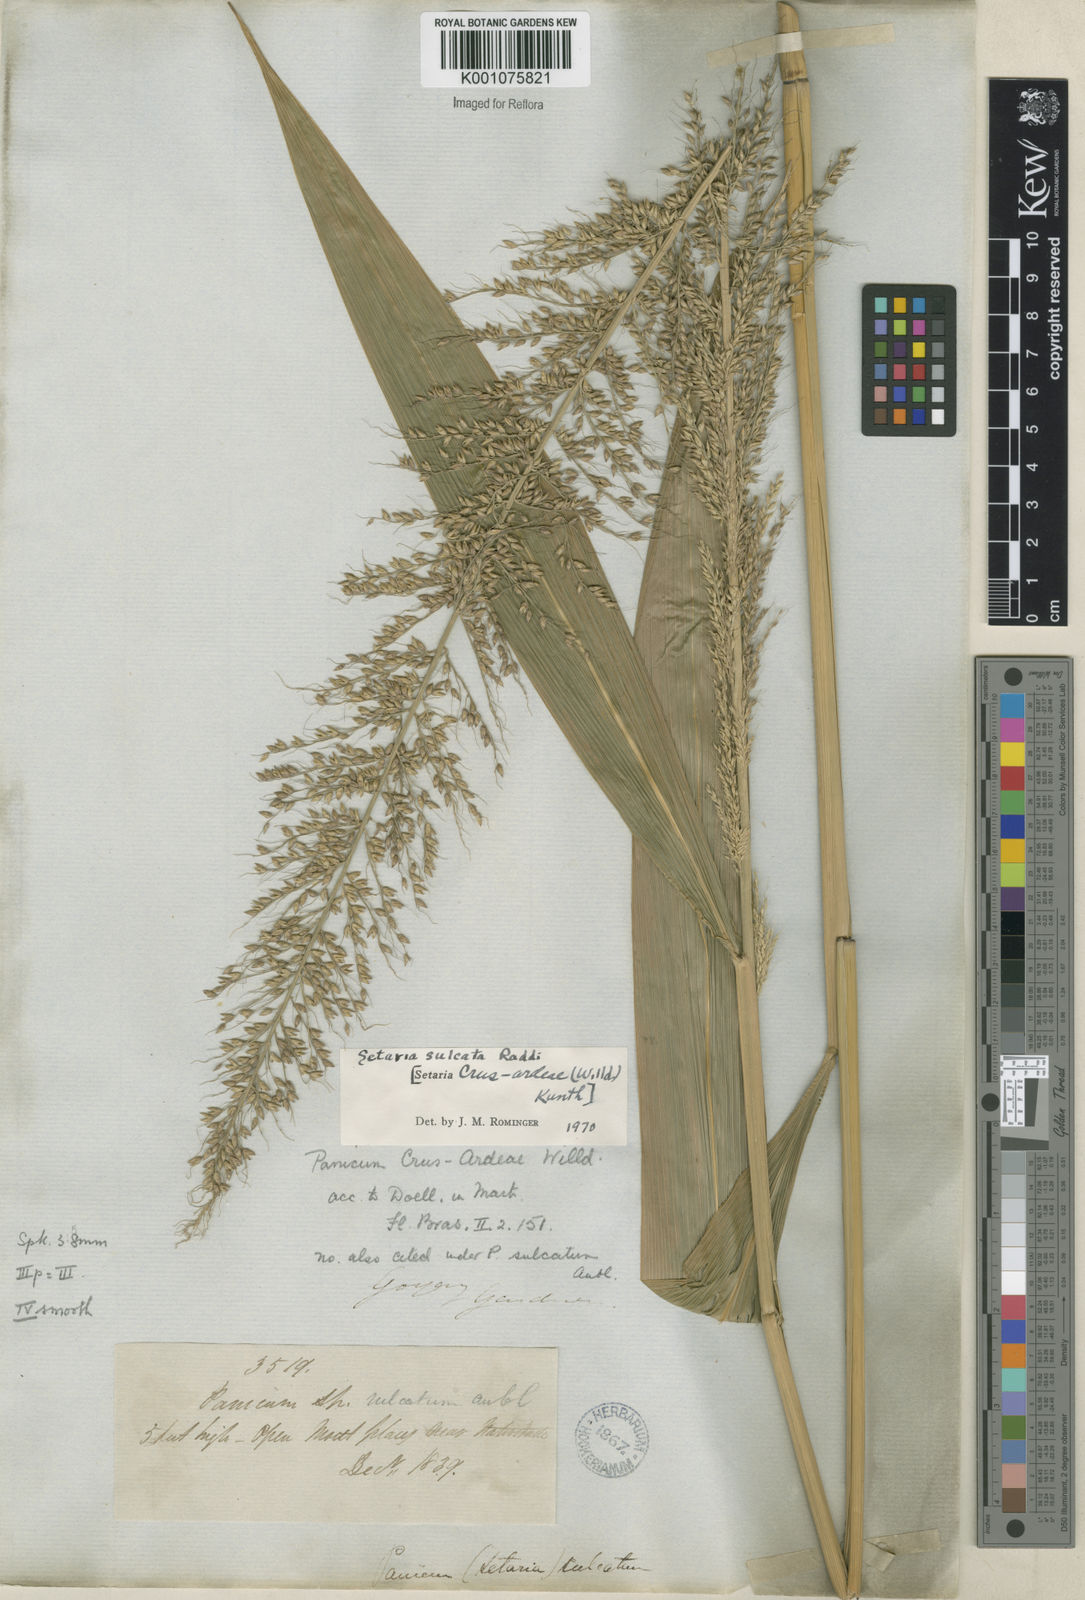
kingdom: Plantae
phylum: Tracheophyta
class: Liliopsida
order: Poales
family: Poaceae
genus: Setaria
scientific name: Setaria sulcata
